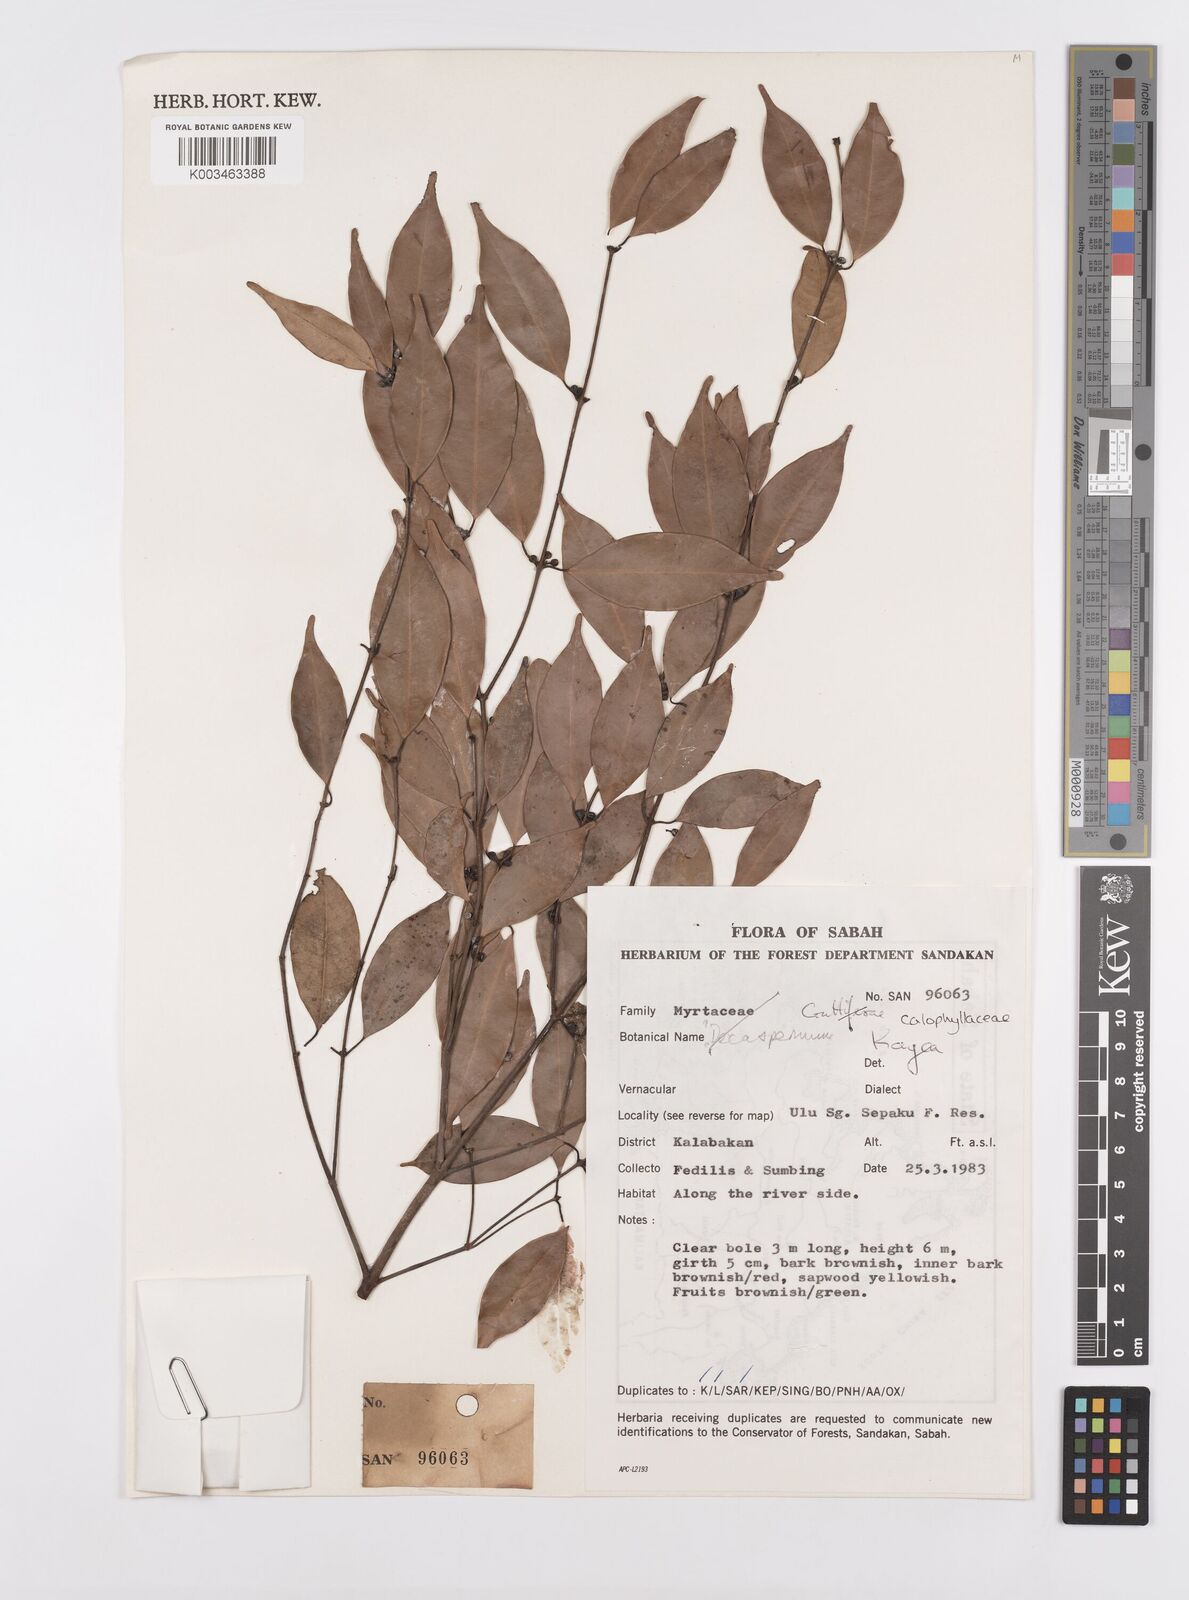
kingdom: Plantae
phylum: Tracheophyta
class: Magnoliopsida
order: Malpighiales
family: Calophyllaceae
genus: Kayea
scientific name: Kayea
